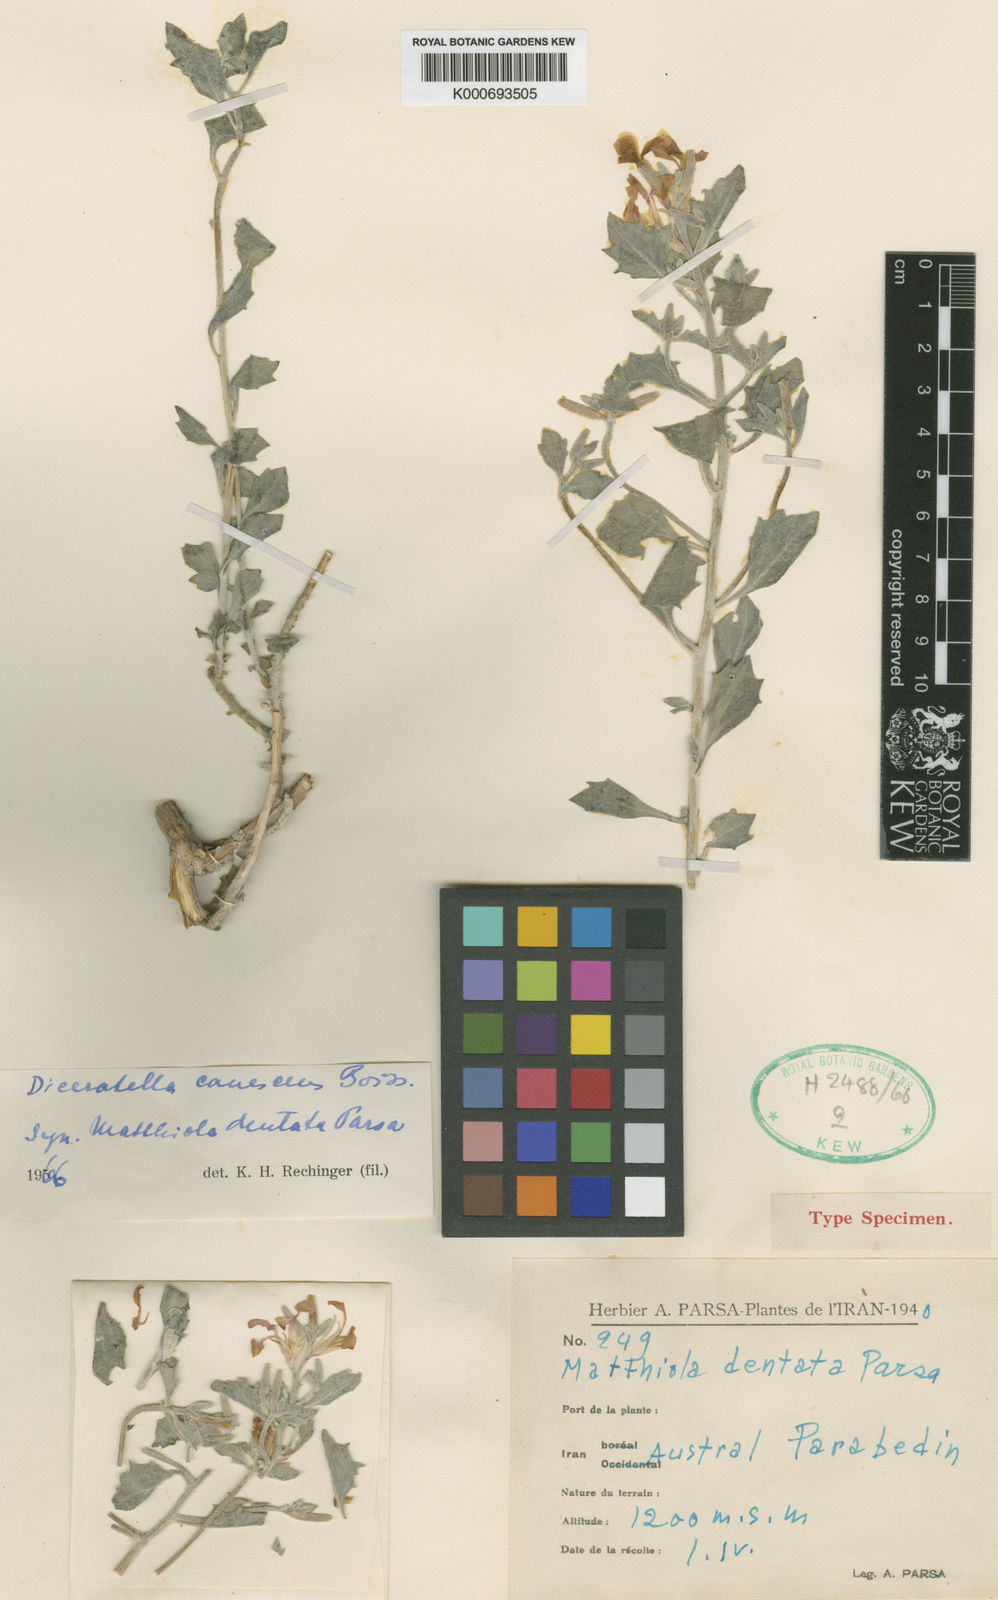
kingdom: Plantae
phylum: Tracheophyta
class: Magnoliopsida
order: Brassicales
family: Brassicaceae
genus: Diceratella
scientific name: Diceratella canescens
